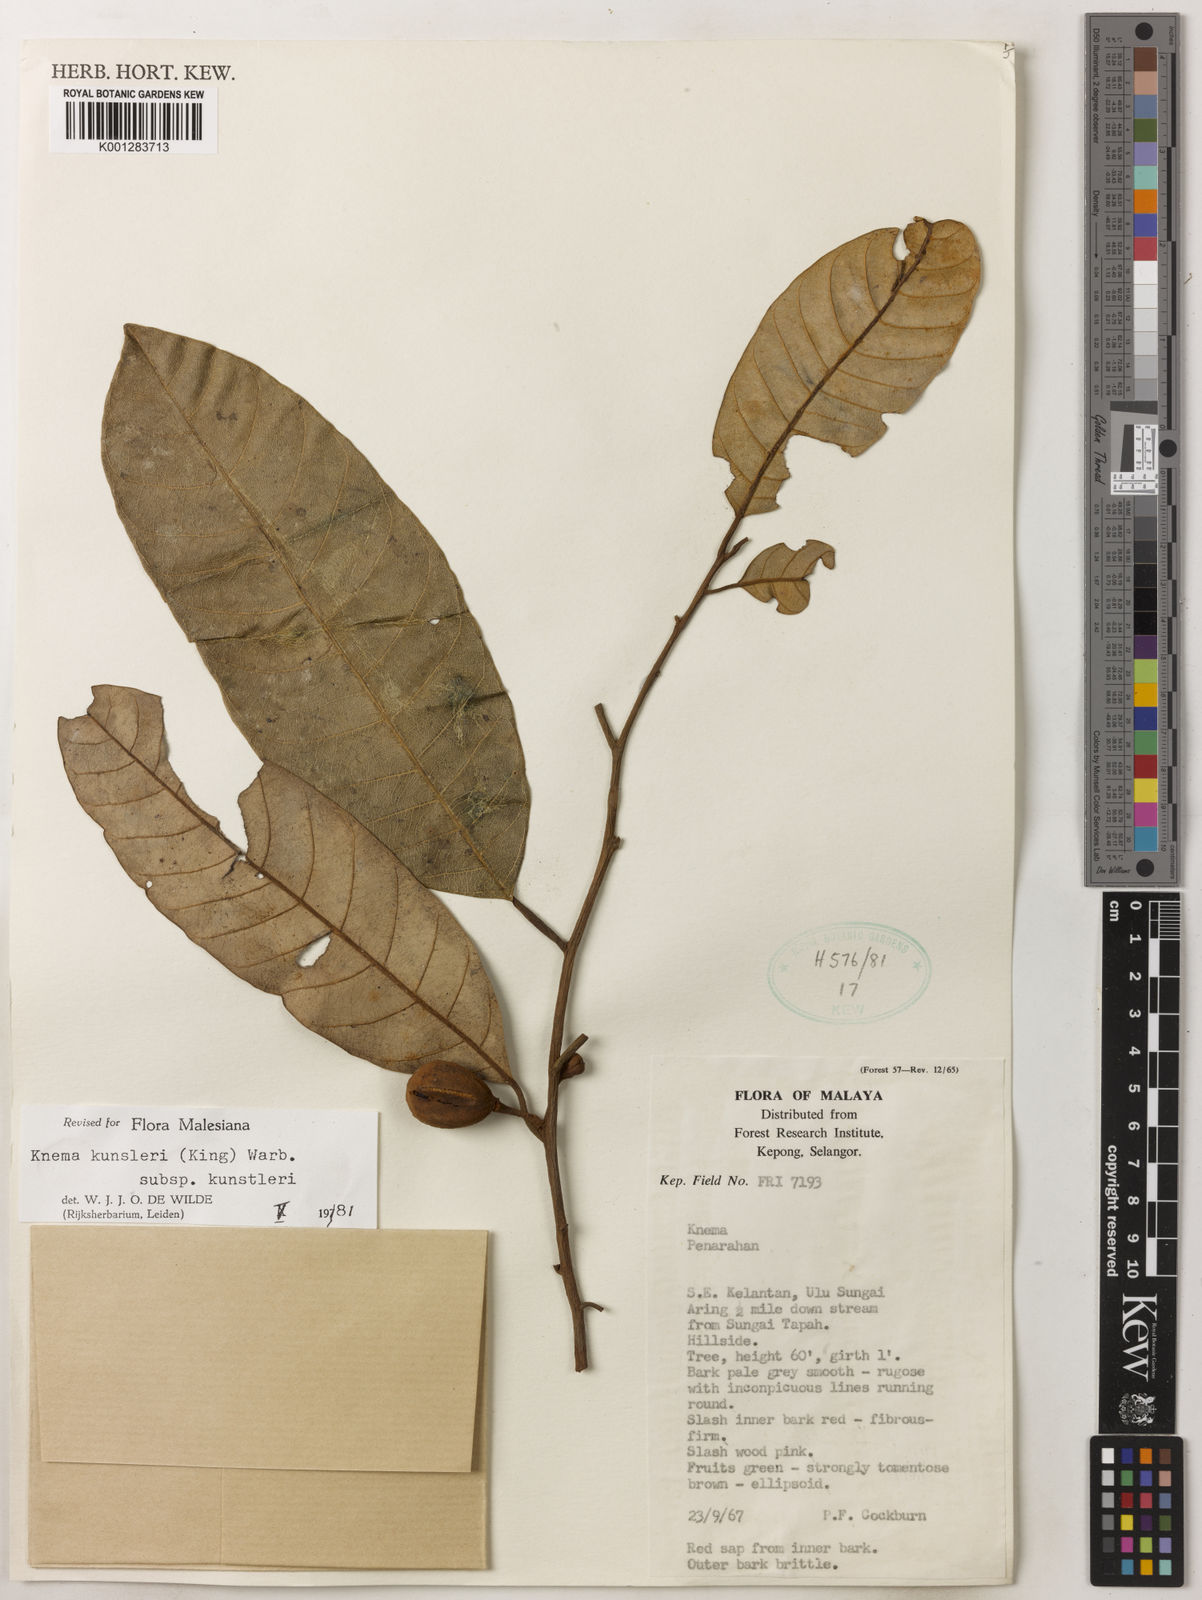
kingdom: Plantae
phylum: Tracheophyta
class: Magnoliopsida
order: Magnoliales
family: Myristicaceae
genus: Knema
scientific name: Knema kunstleri
